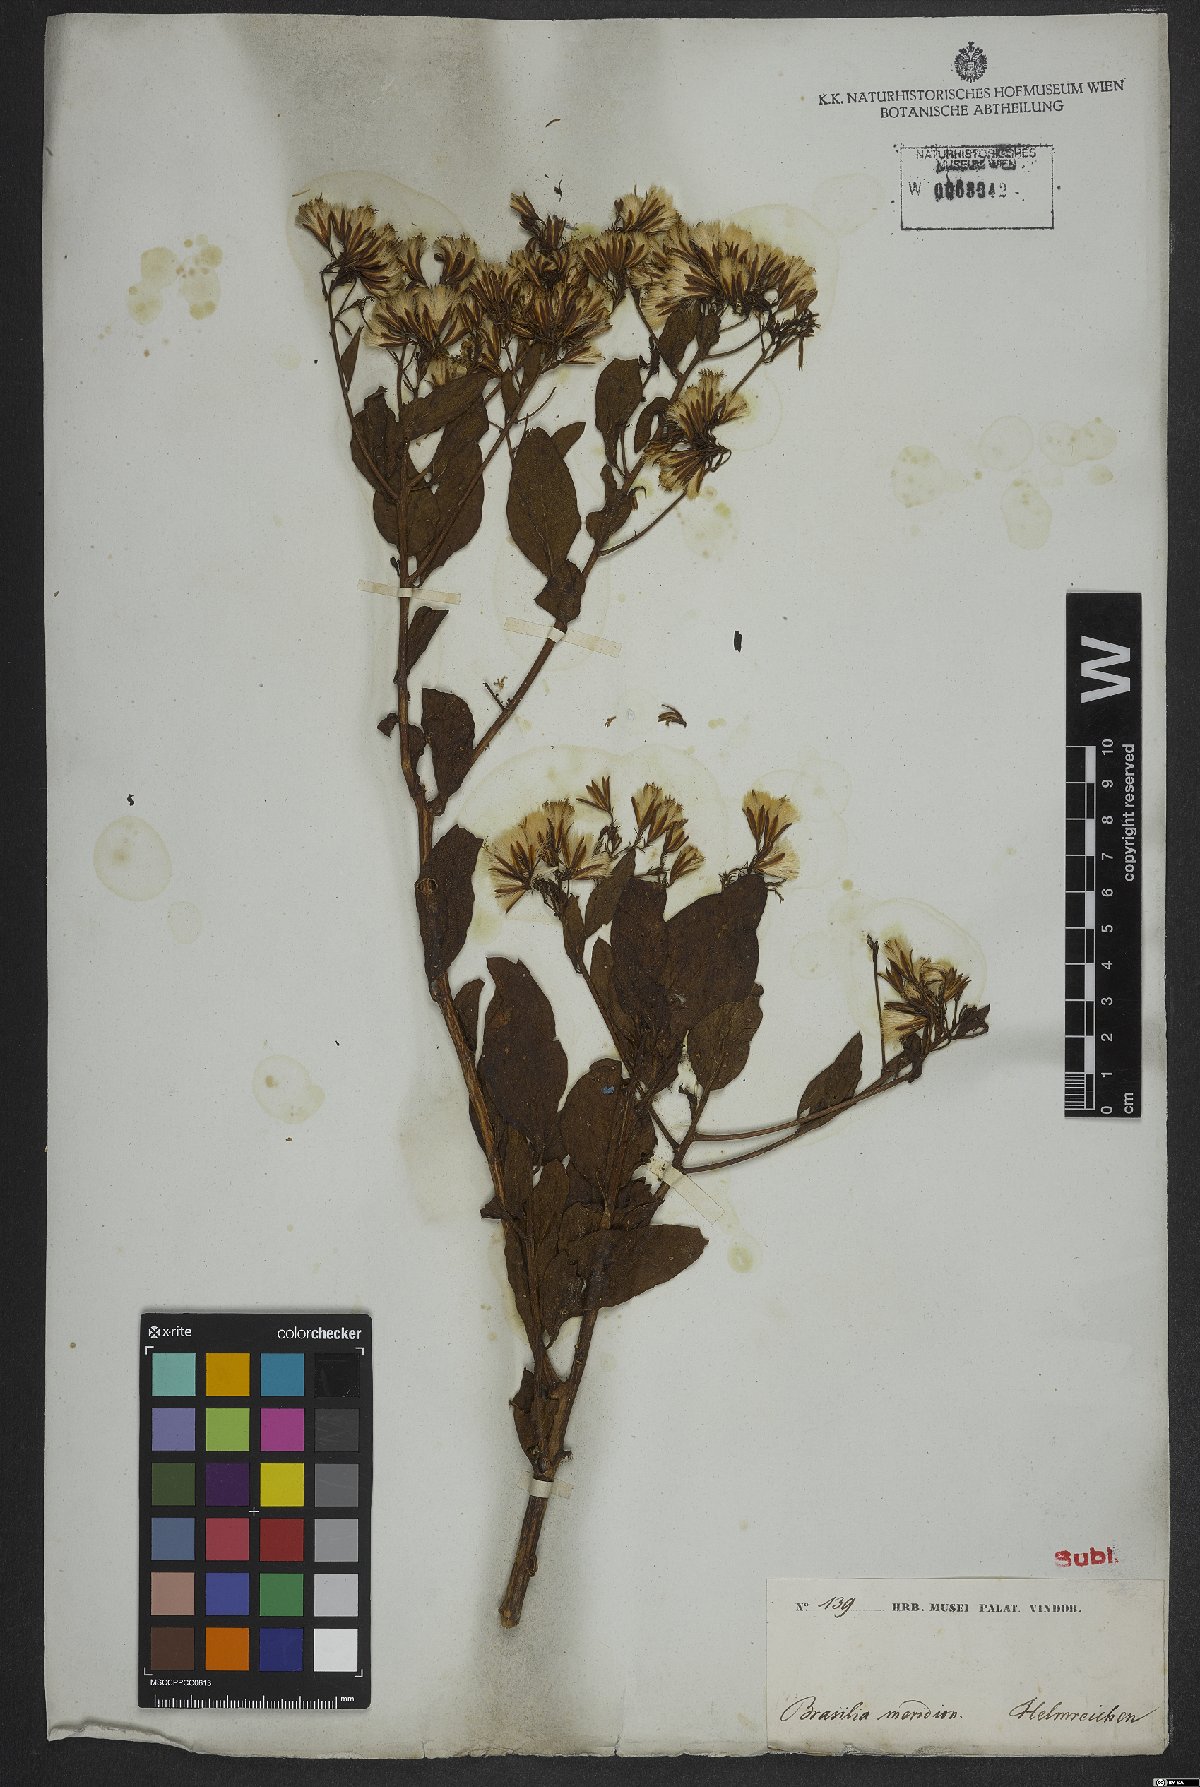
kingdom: Plantae
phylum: Tracheophyta
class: Magnoliopsida
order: Asterales
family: Asteraceae
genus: Trixis
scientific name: Trixis
